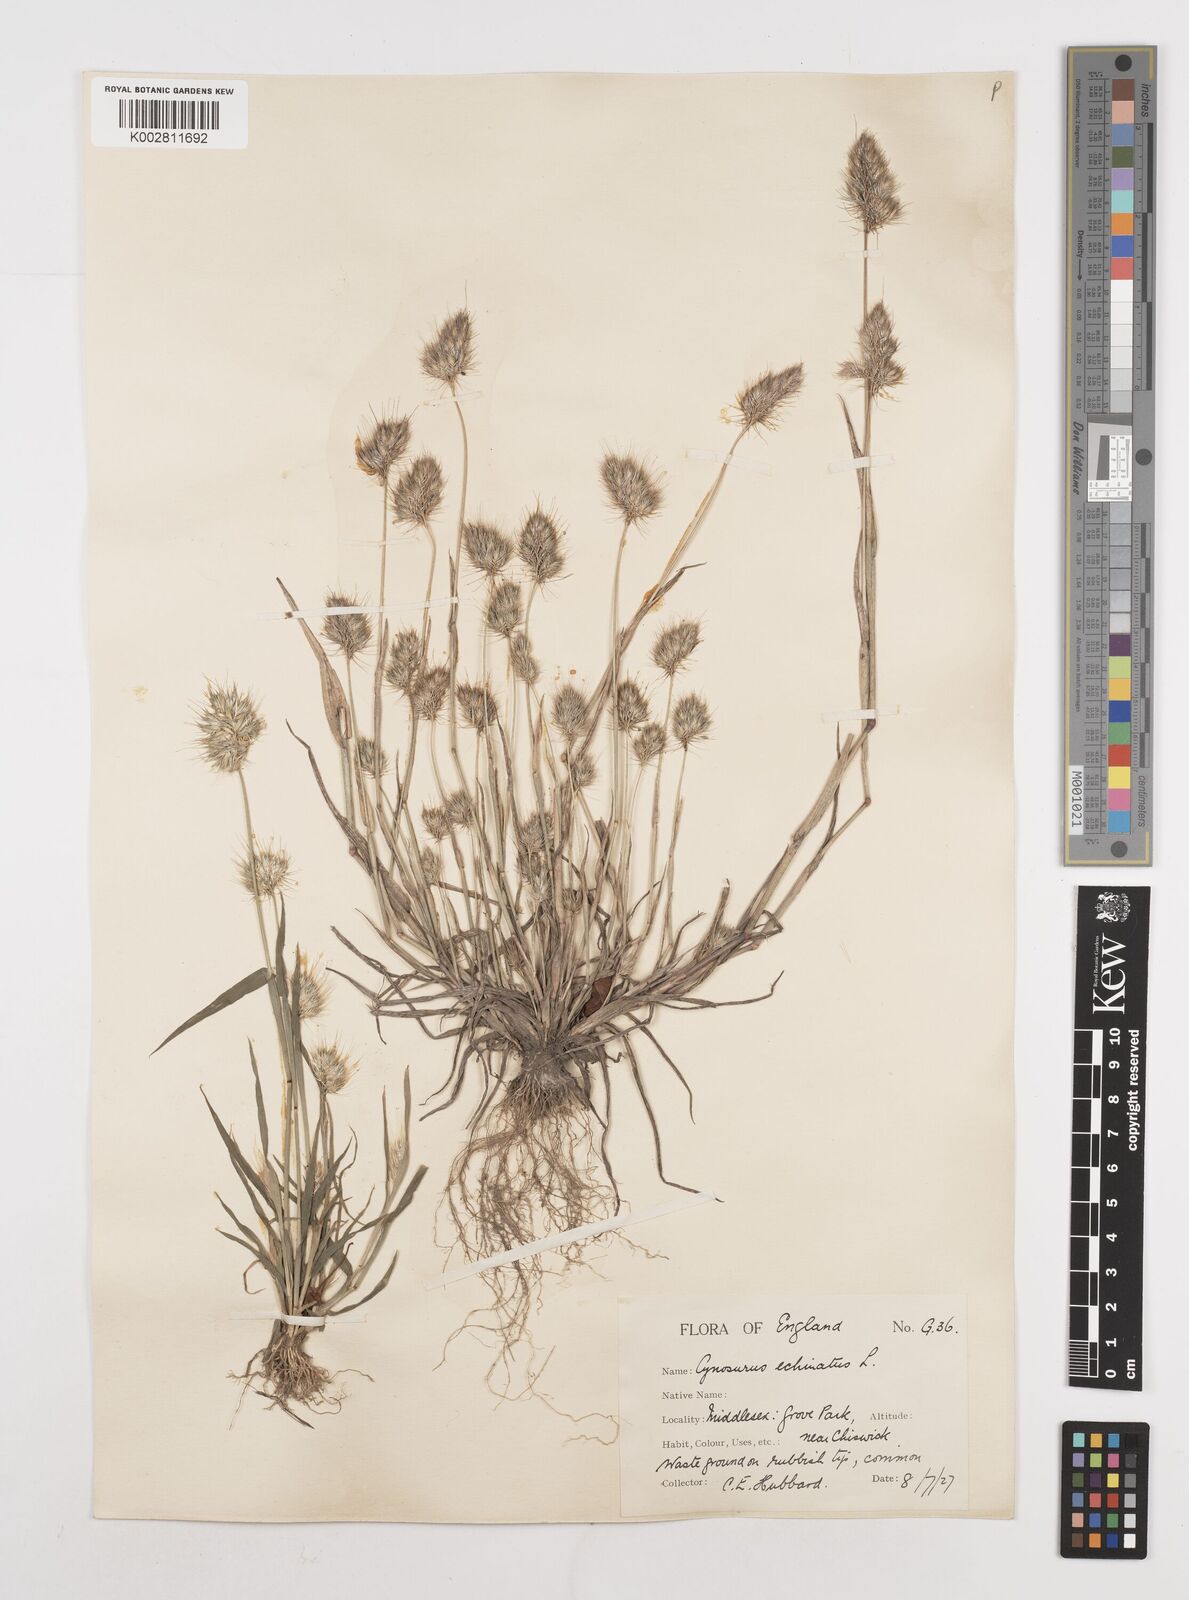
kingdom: Plantae
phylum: Tracheophyta
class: Liliopsida
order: Poales
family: Poaceae
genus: Cynosurus
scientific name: Cynosurus echinatus
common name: Rough dog's-tail
